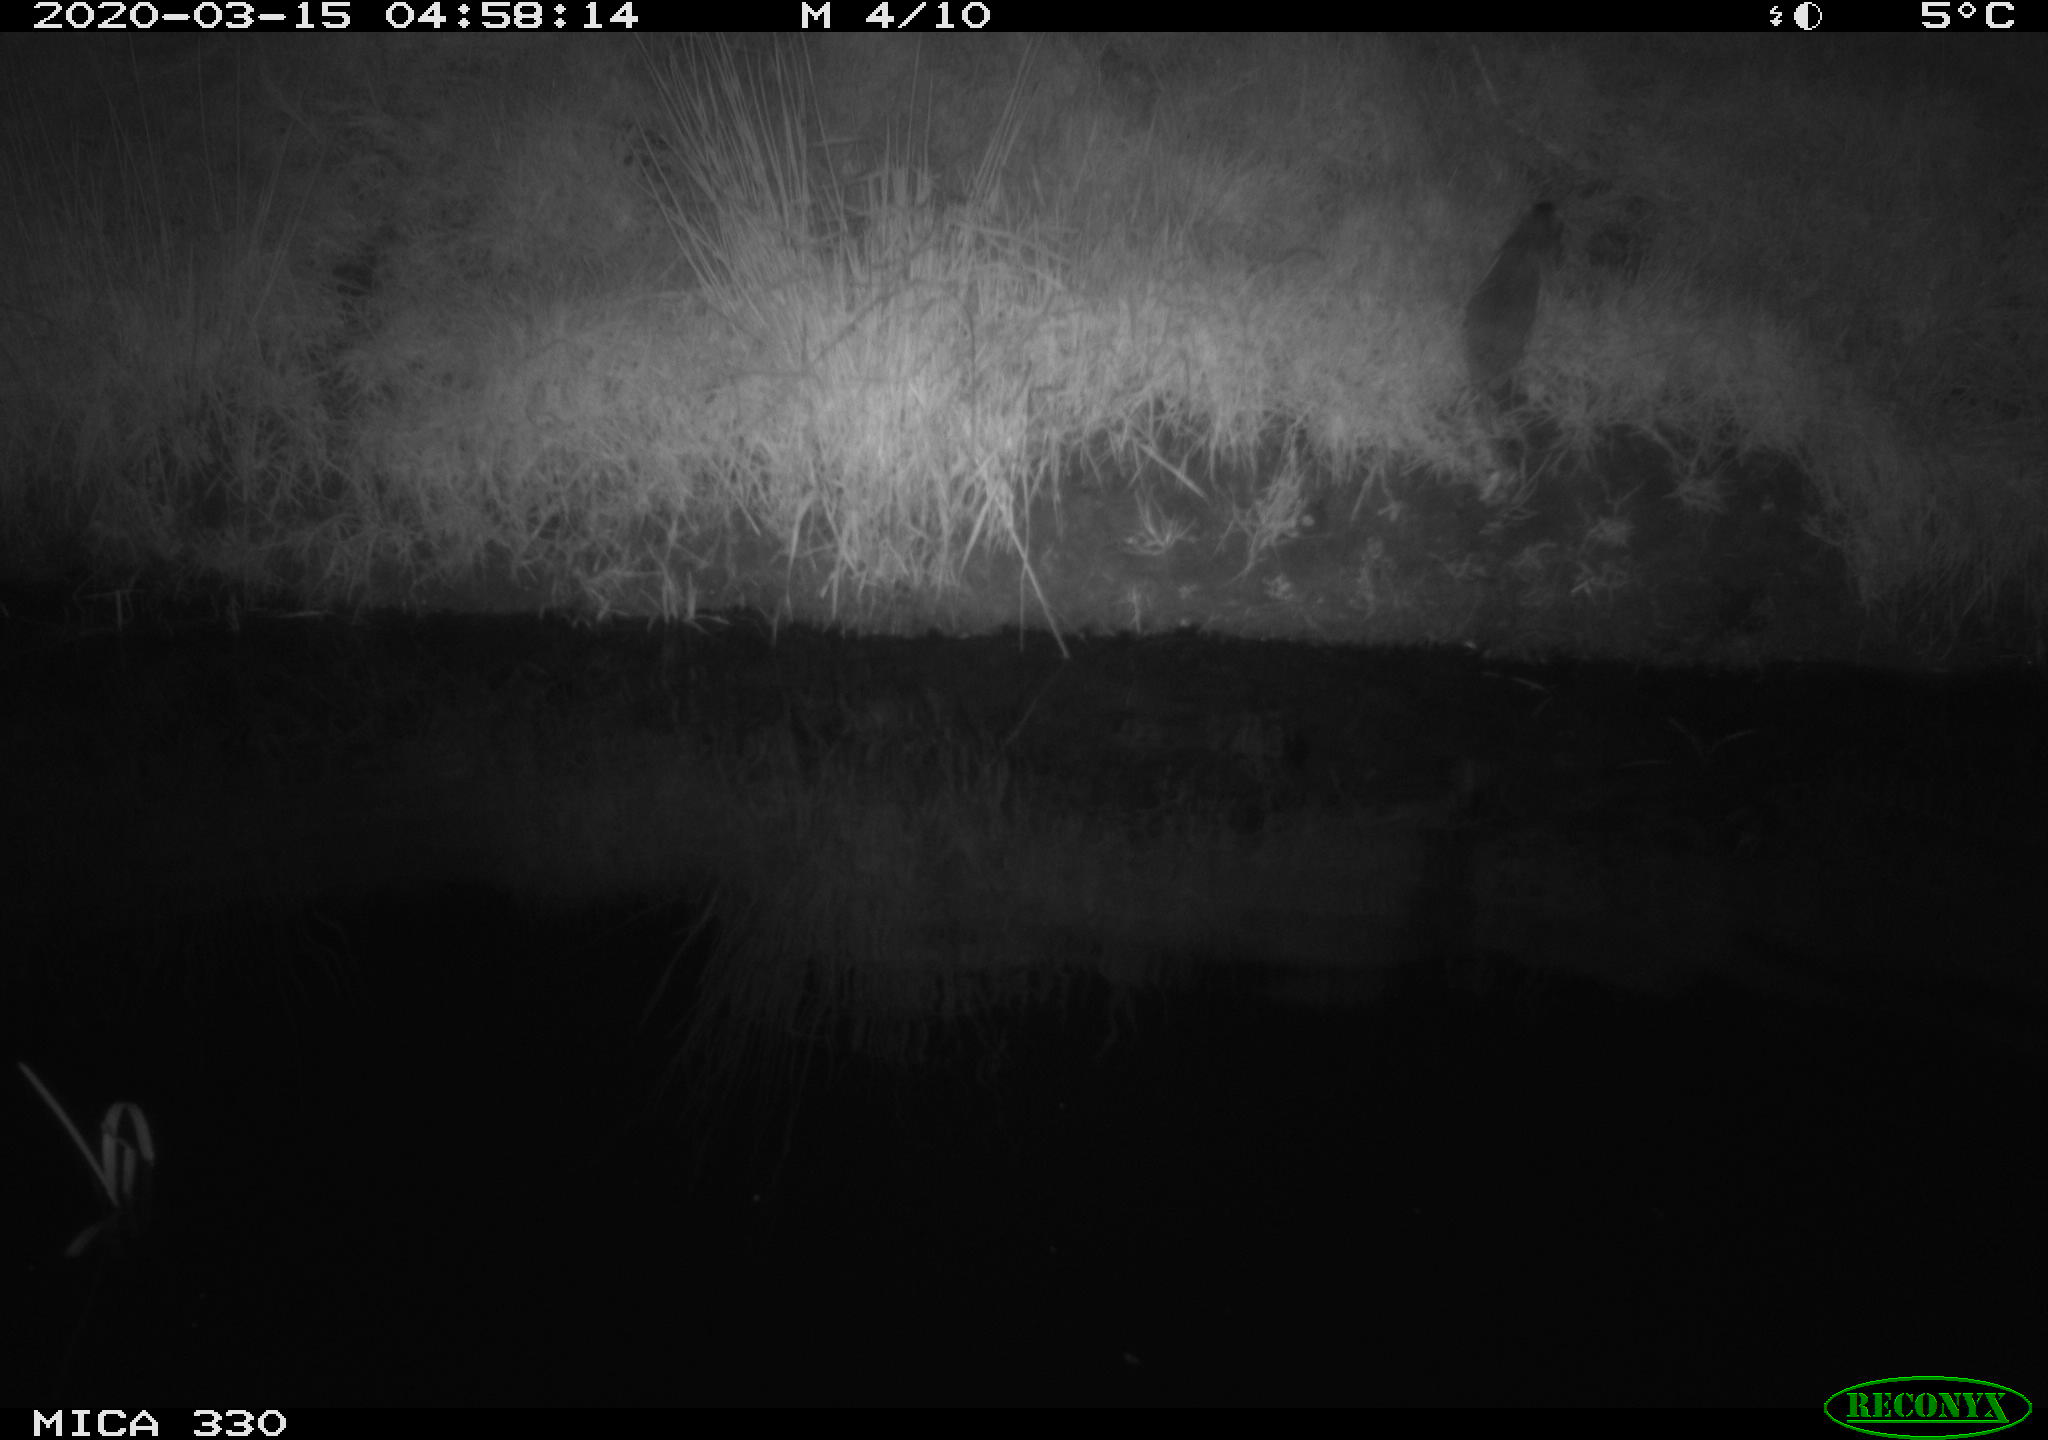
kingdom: Animalia
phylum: Chordata
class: Mammalia
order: Rodentia
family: Muridae
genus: Rattus
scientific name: Rattus norvegicus
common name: Brown rat
